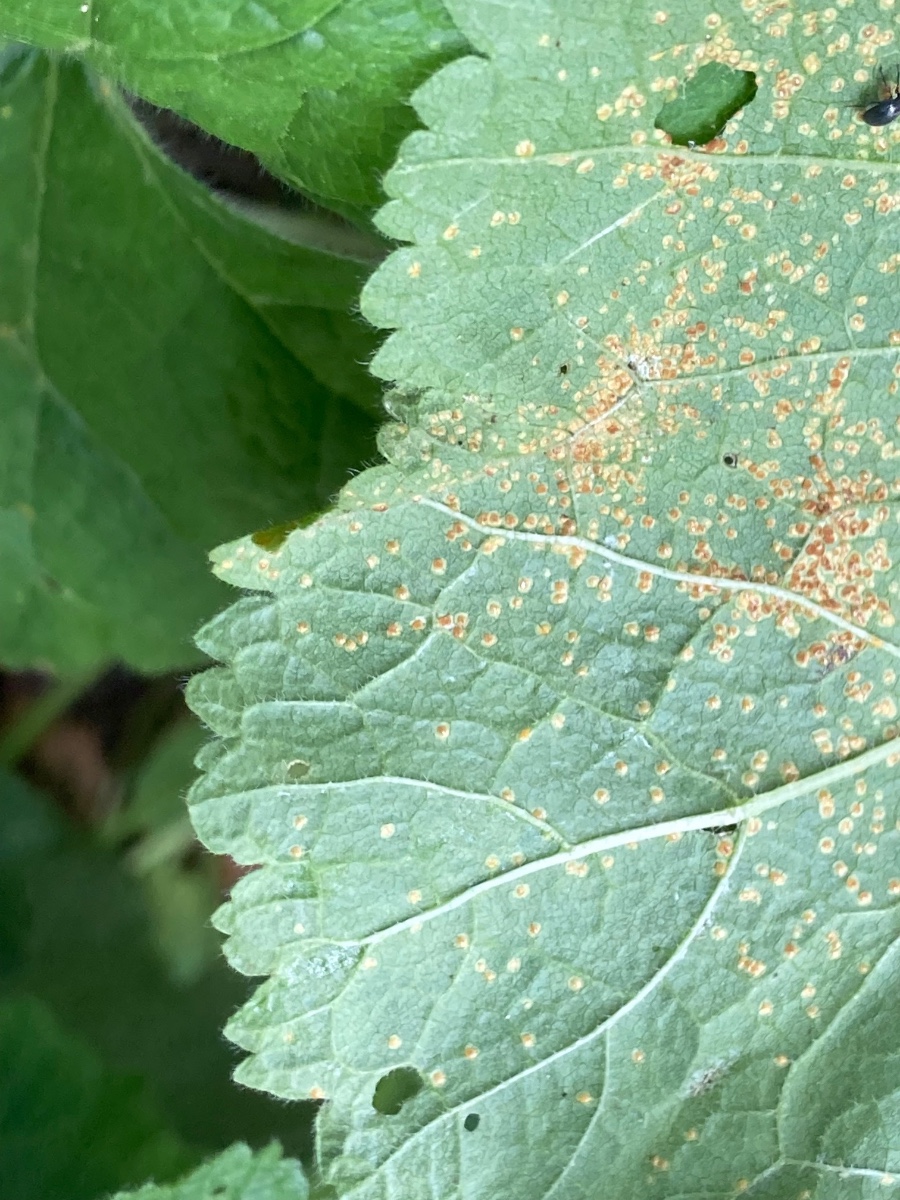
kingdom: Fungi
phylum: Basidiomycota
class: Pucciniomycetes
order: Pucciniales
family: Pucciniaceae
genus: Puccinia
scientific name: Puccinia malvacearum
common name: stokrose-tvecellerust
